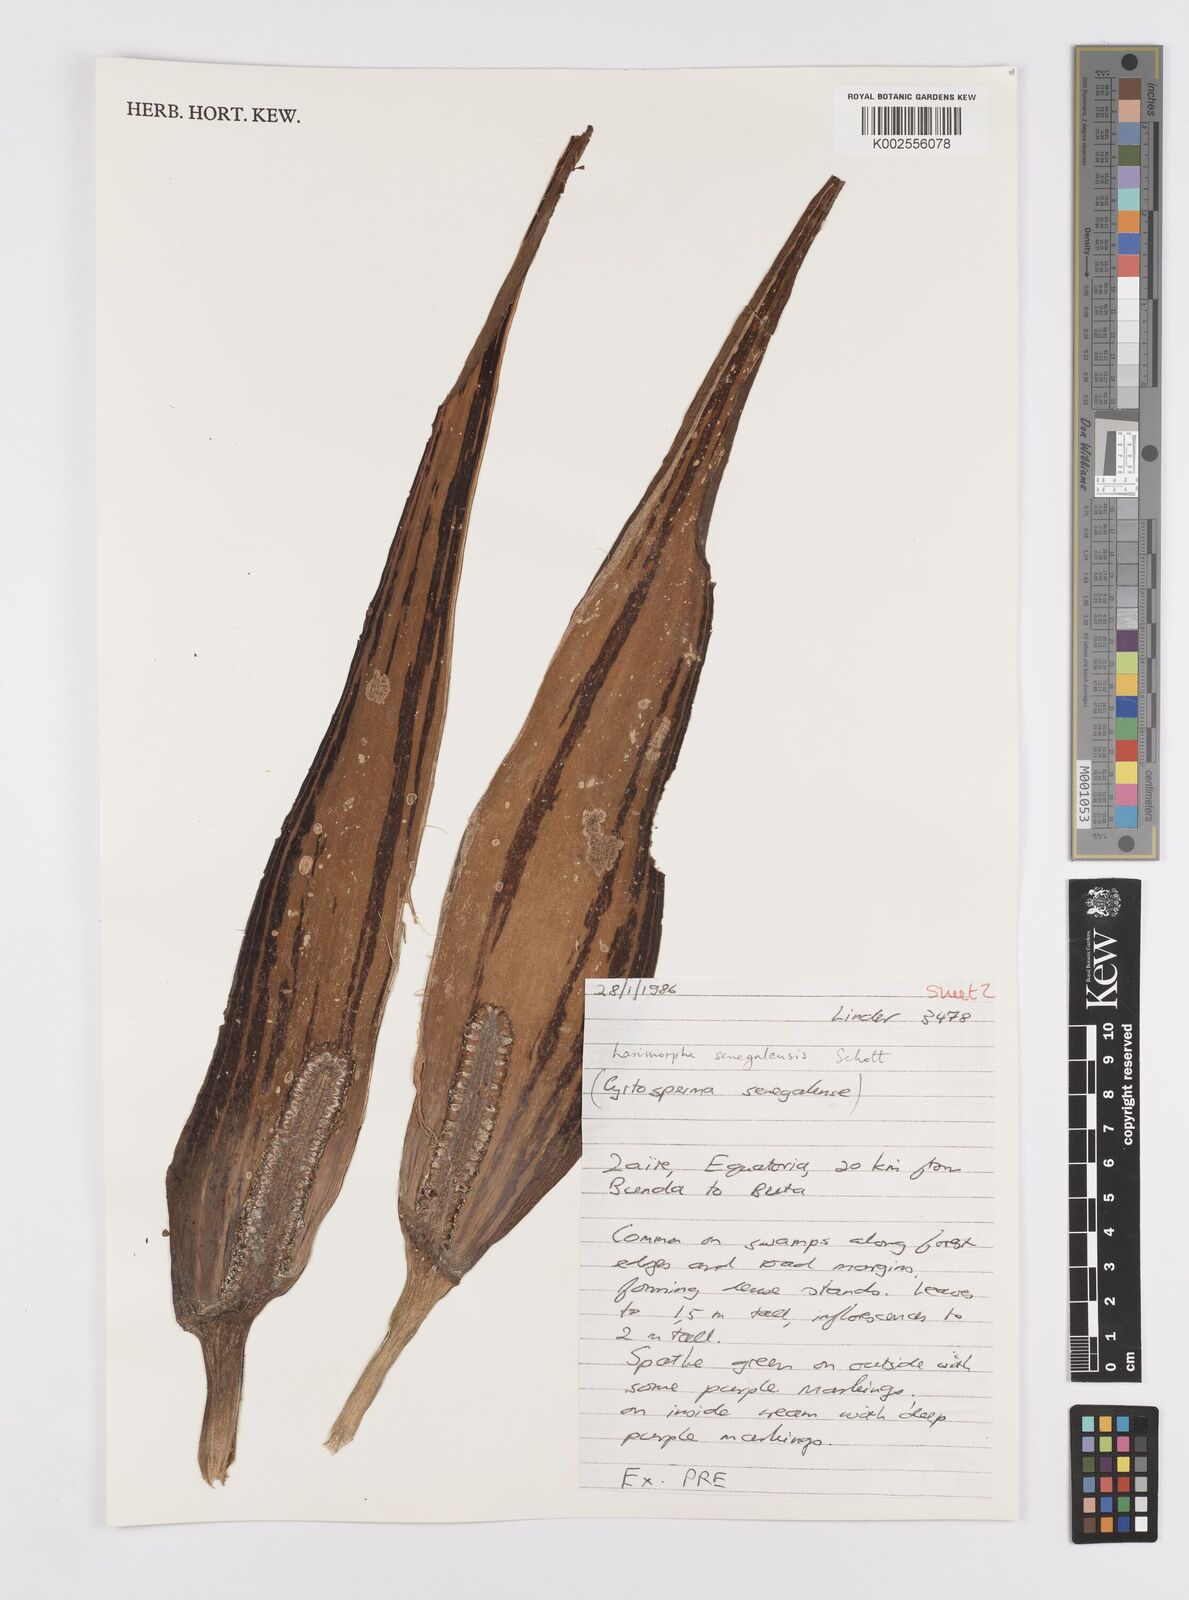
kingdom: Plantae
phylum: Tracheophyta
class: Liliopsida
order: Alismatales
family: Araceae
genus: Lasimorpha
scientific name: Lasimorpha senegalensis
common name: Swamp arum
